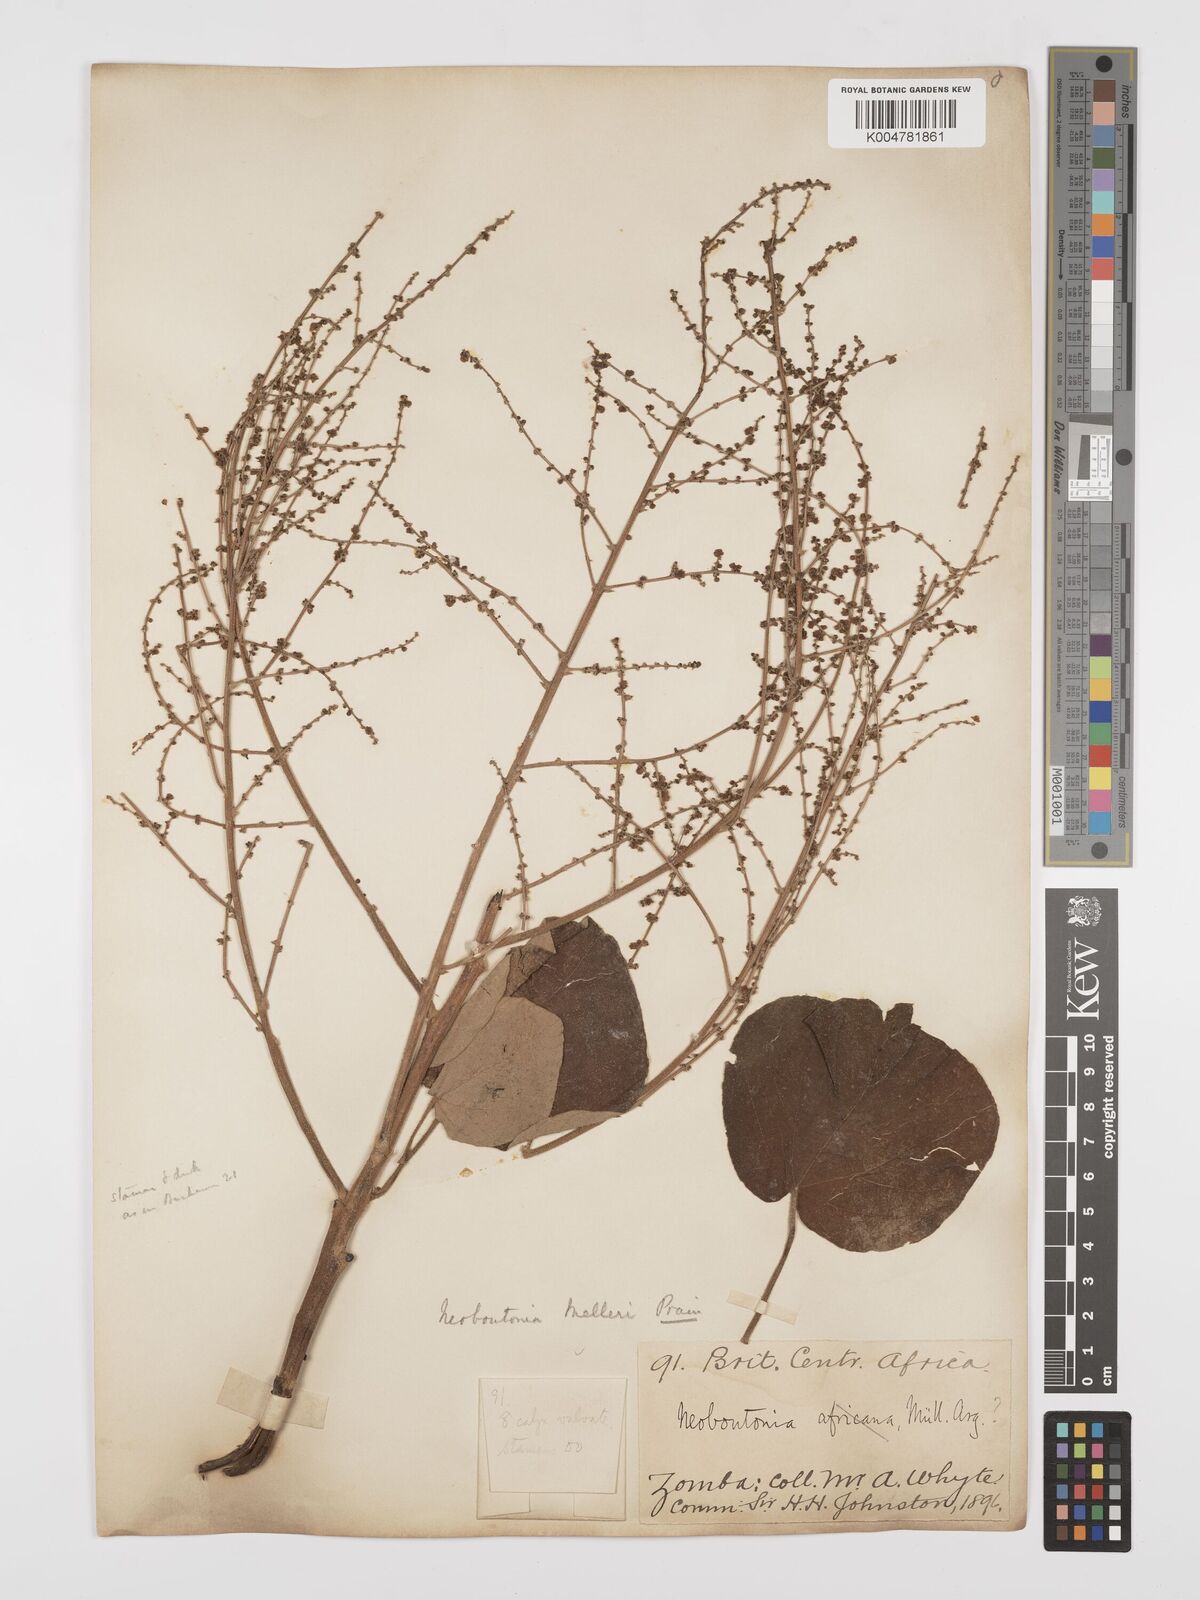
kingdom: Plantae
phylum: Tracheophyta
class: Magnoliopsida
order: Malpighiales
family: Euphorbiaceae
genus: Neoboutonia
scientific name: Neoboutonia melleri
